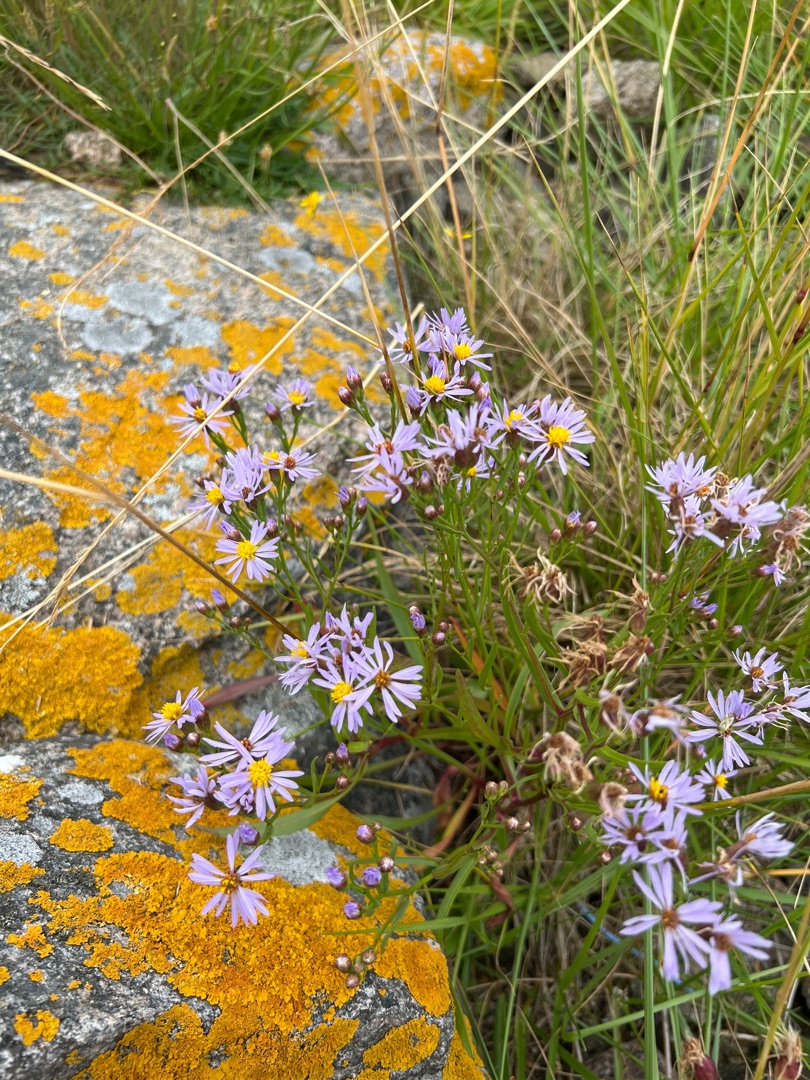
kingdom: Plantae
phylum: Tracheophyta
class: Magnoliopsida
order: Asterales
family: Asteraceae
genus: Tripolium
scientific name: Tripolium pannonicum
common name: Strandasters
